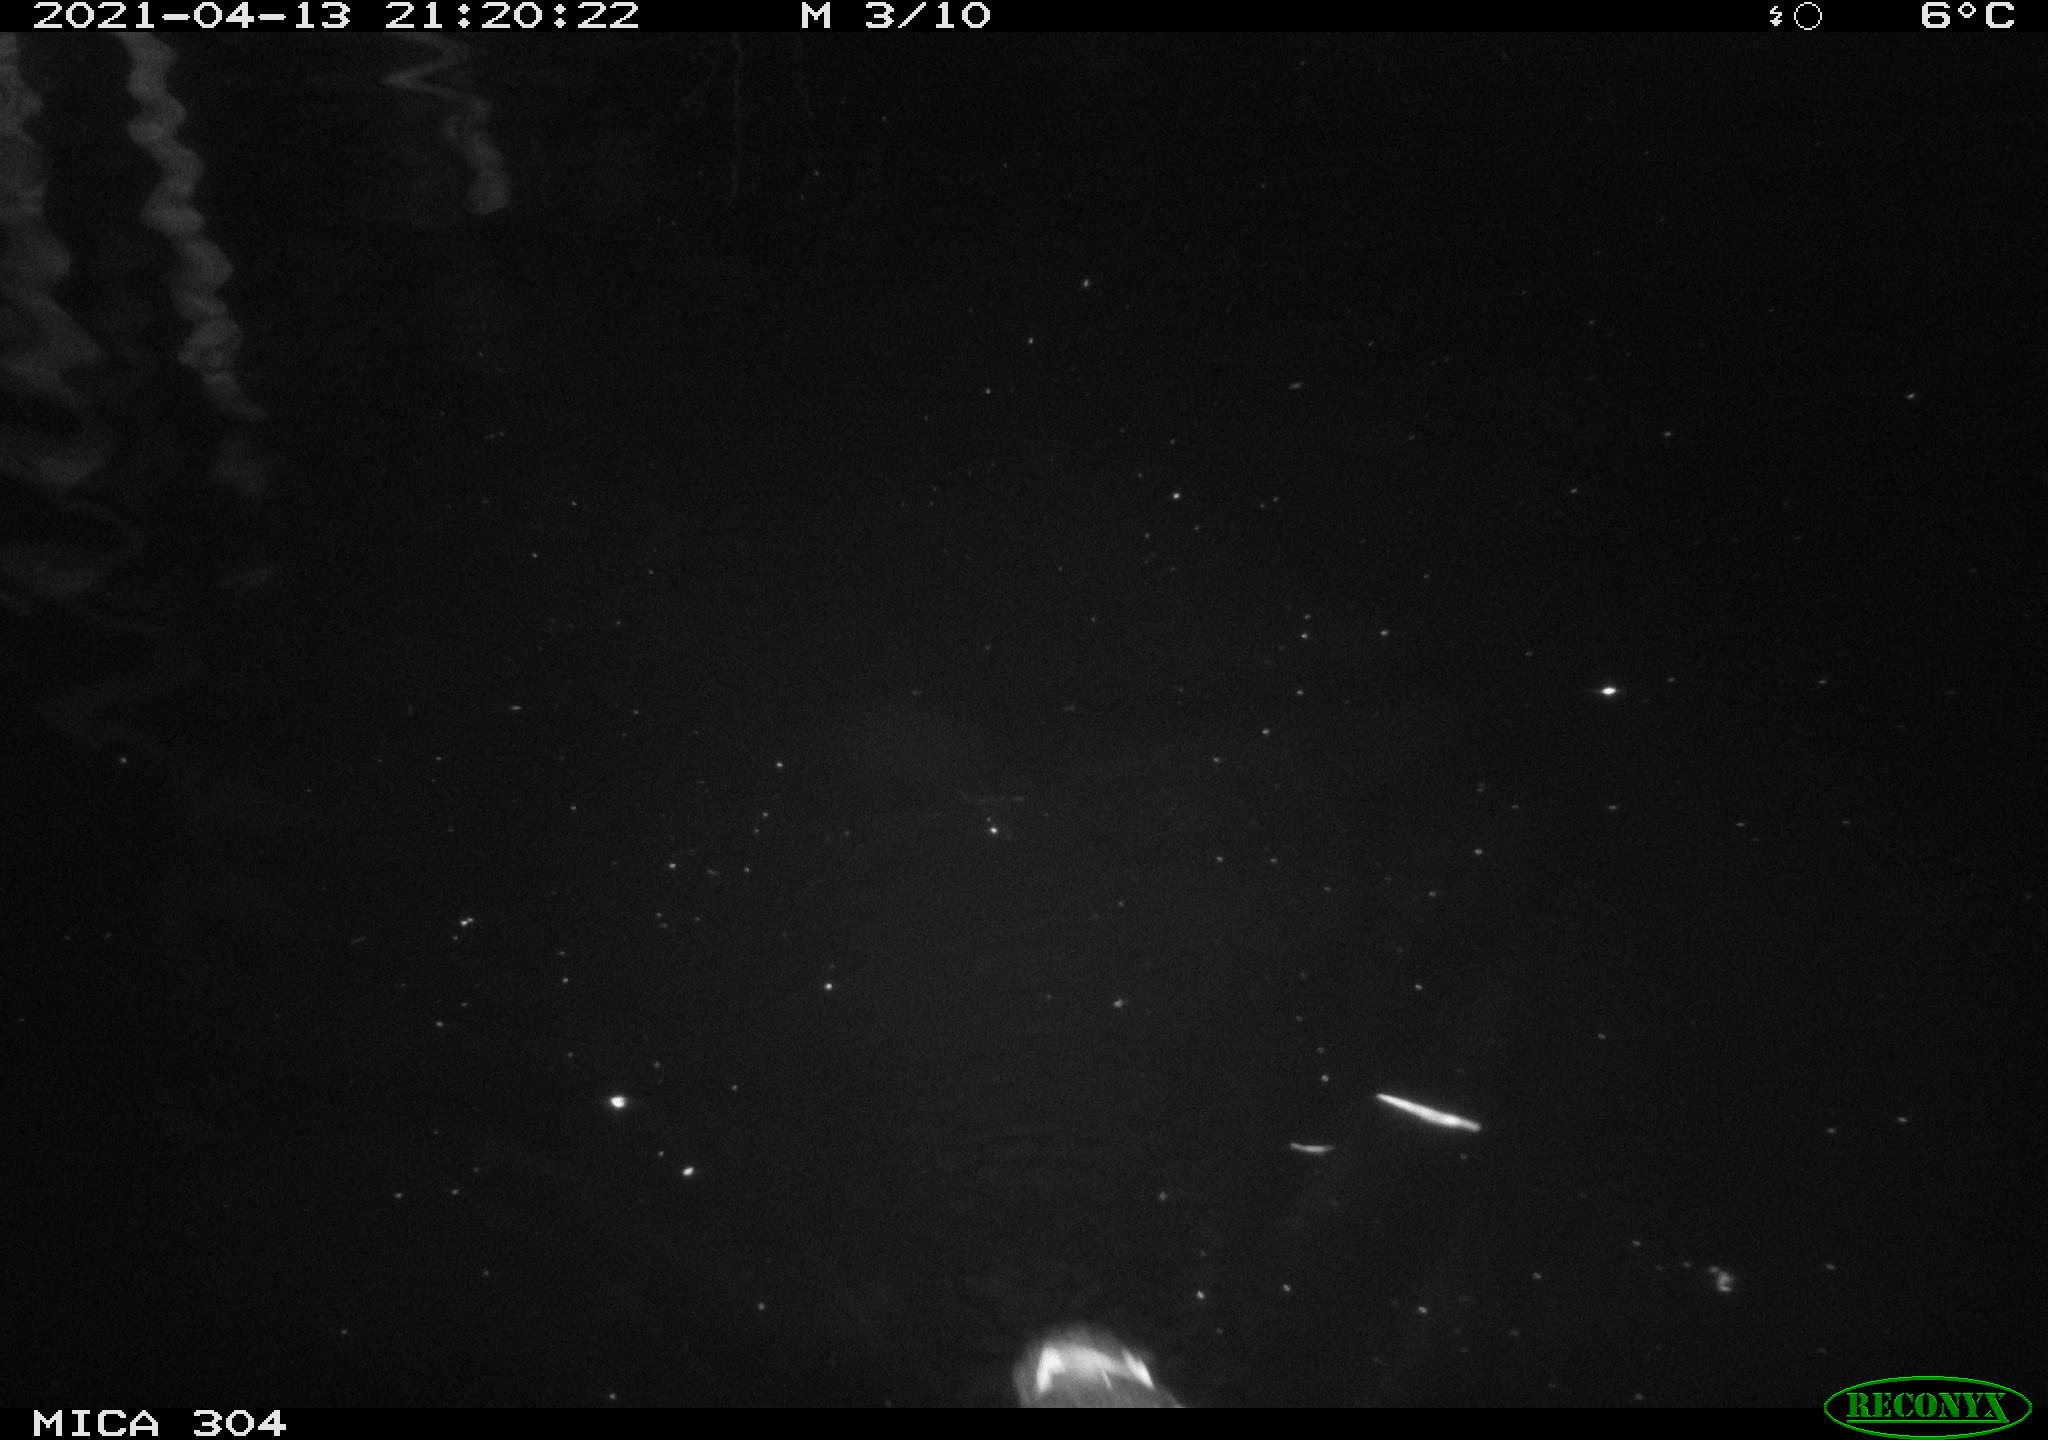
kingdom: Animalia
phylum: Chordata
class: Aves
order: Anseriformes
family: Anatidae
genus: Anas
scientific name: Anas
